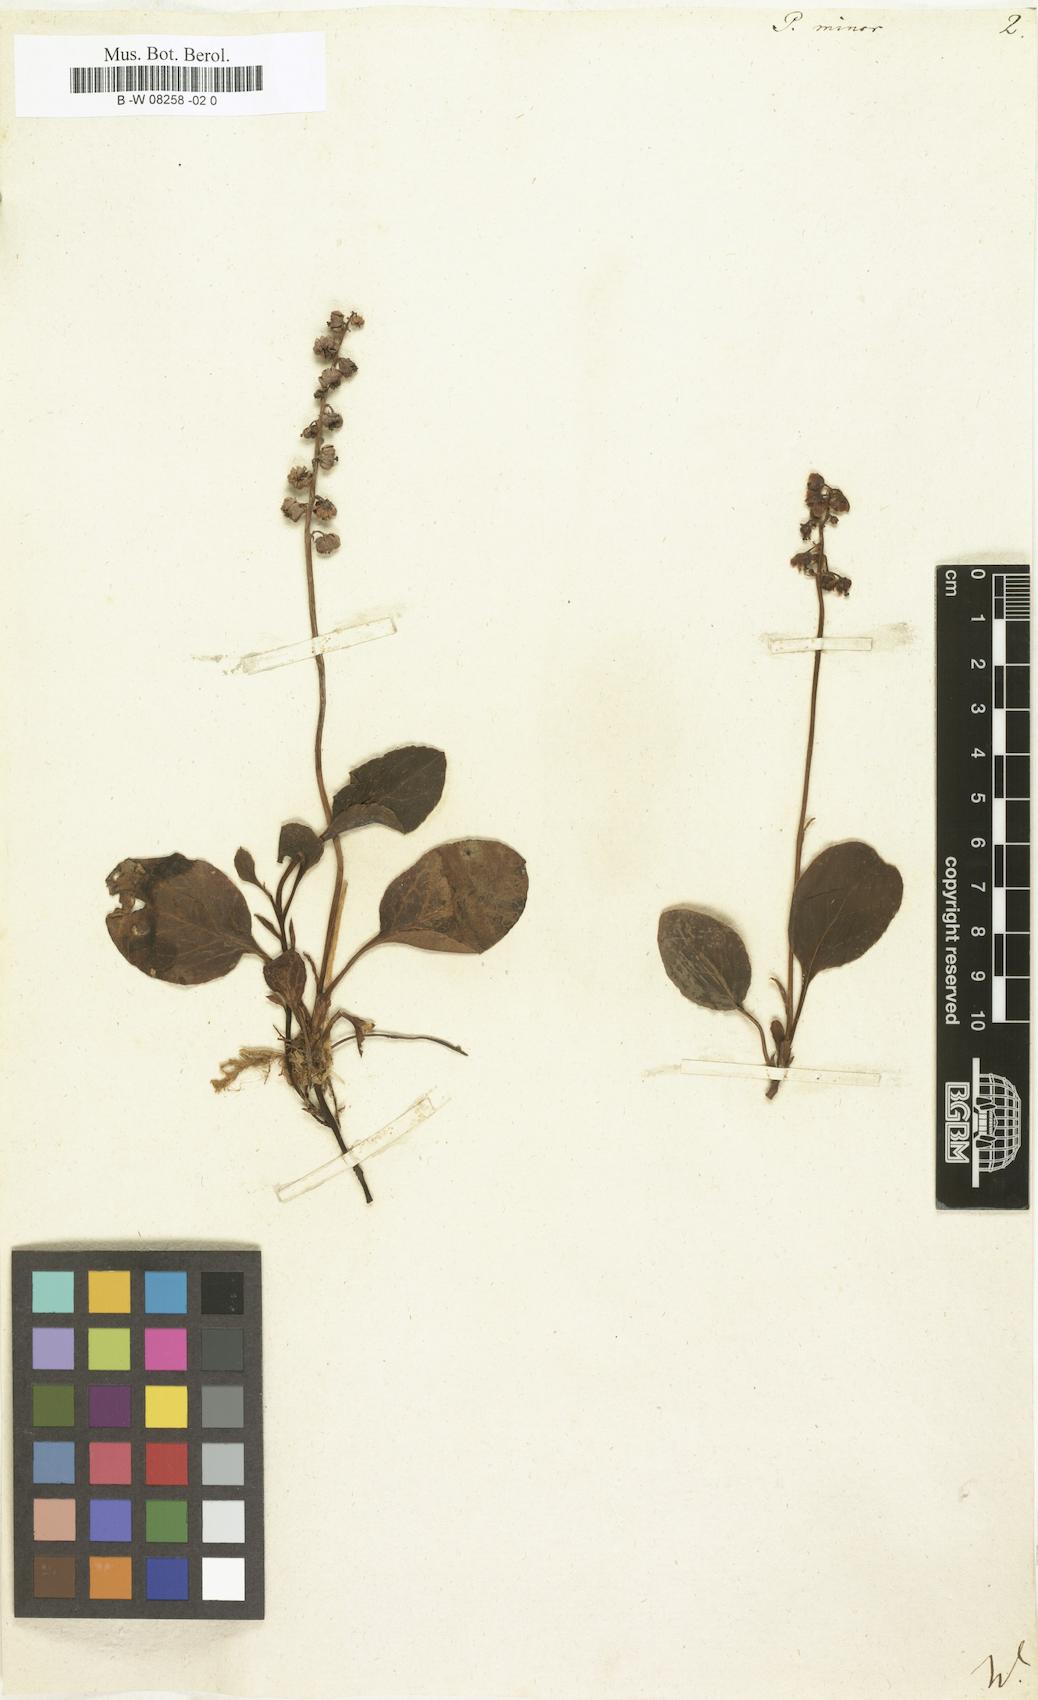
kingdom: Plantae
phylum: Tracheophyta
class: Magnoliopsida
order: Ericales
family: Ericaceae
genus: Pyrola
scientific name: Pyrola minor
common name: Common wintergreen
